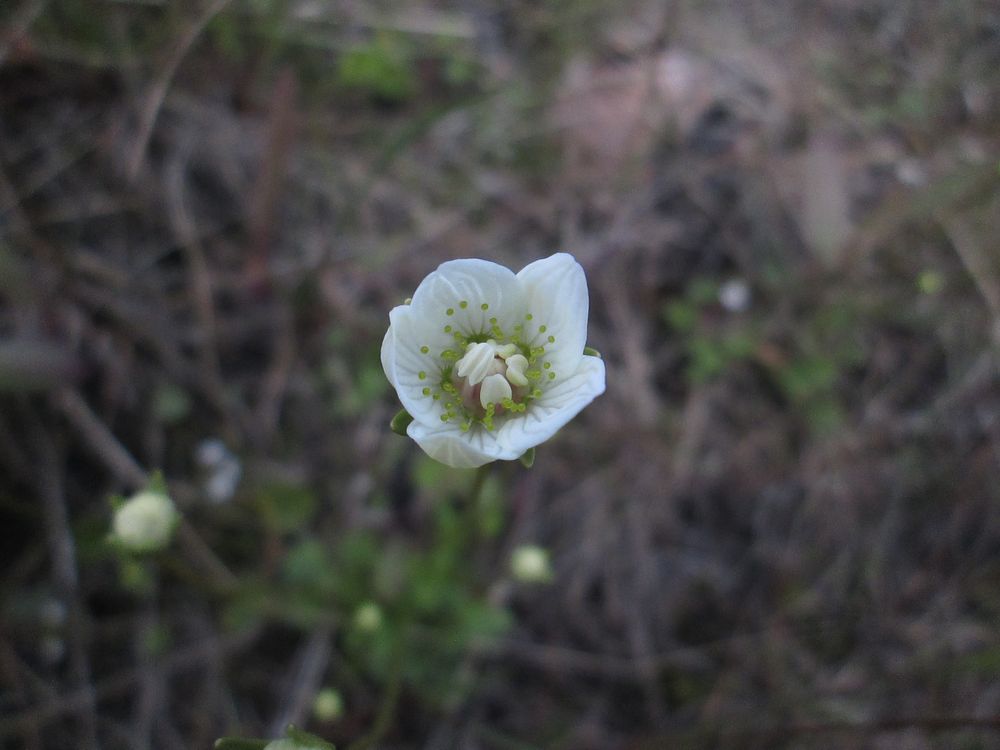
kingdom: Plantae
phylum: Tracheophyta
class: Magnoliopsida
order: Celastrales
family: Parnassiaceae
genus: Parnassia
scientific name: Parnassia palustris
